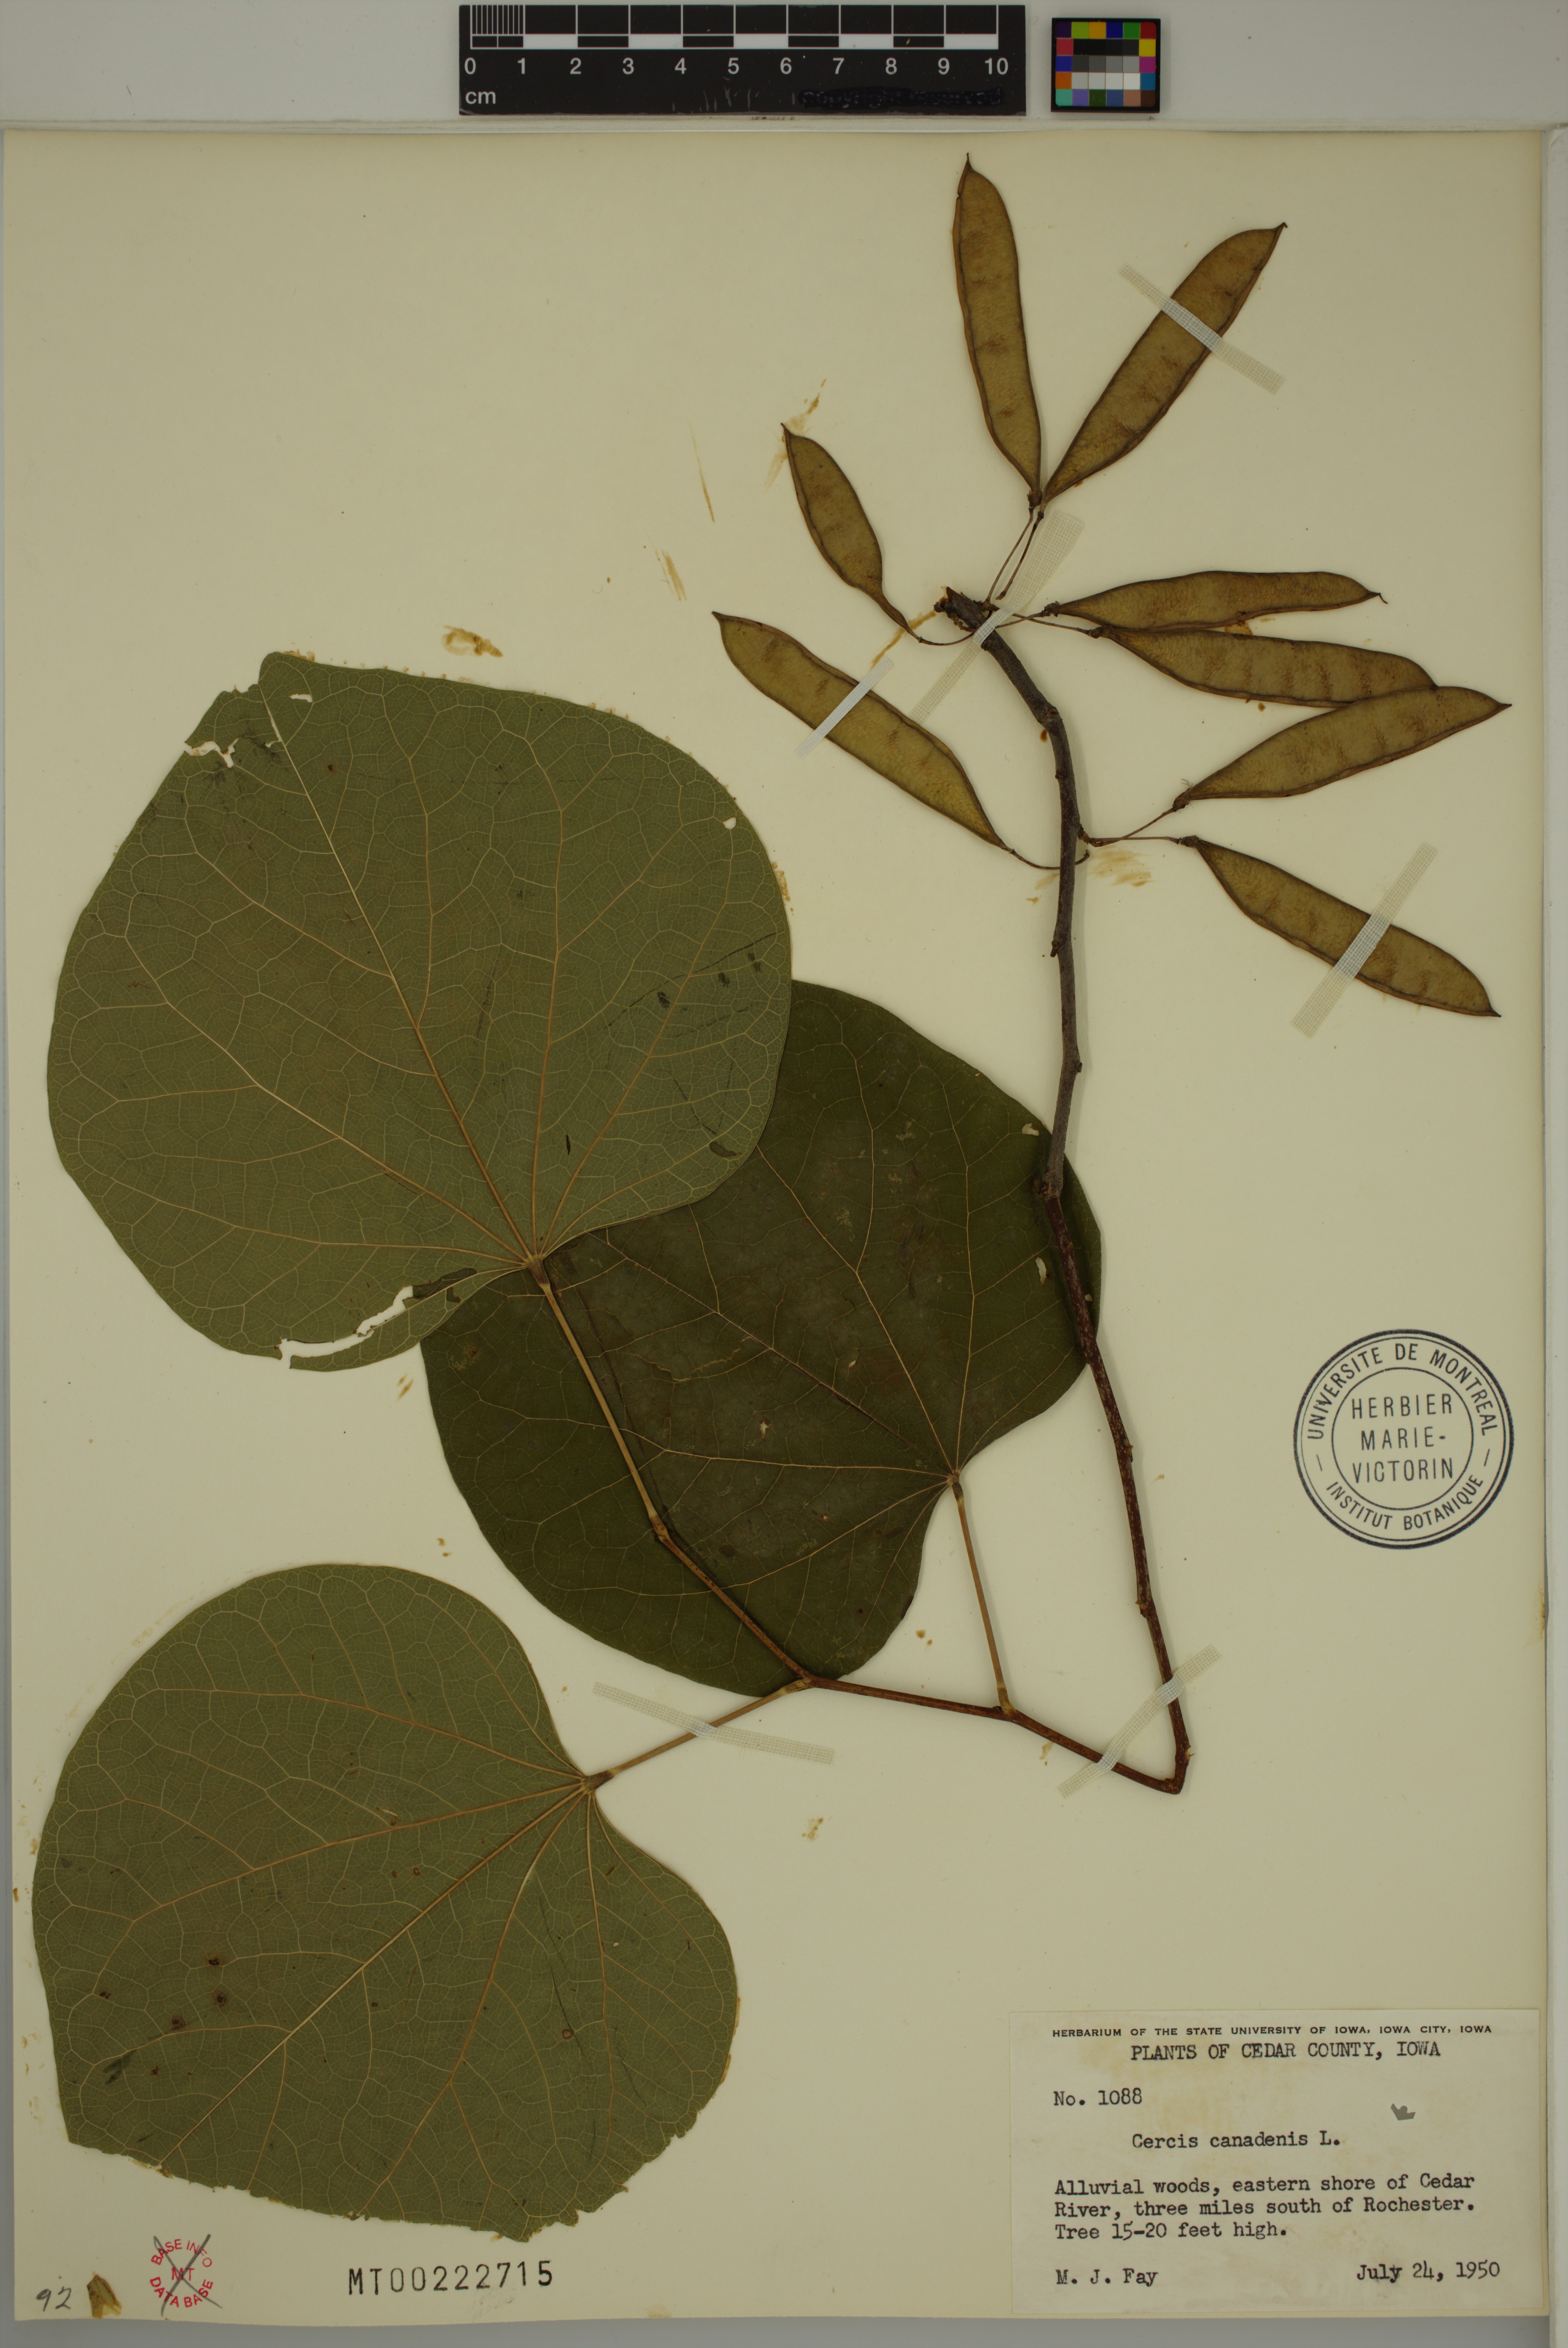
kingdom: Plantae
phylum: Tracheophyta
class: Magnoliopsida
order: Fabales
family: Fabaceae
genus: Cercis
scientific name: Cercis canadensis
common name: Eastern redbud
